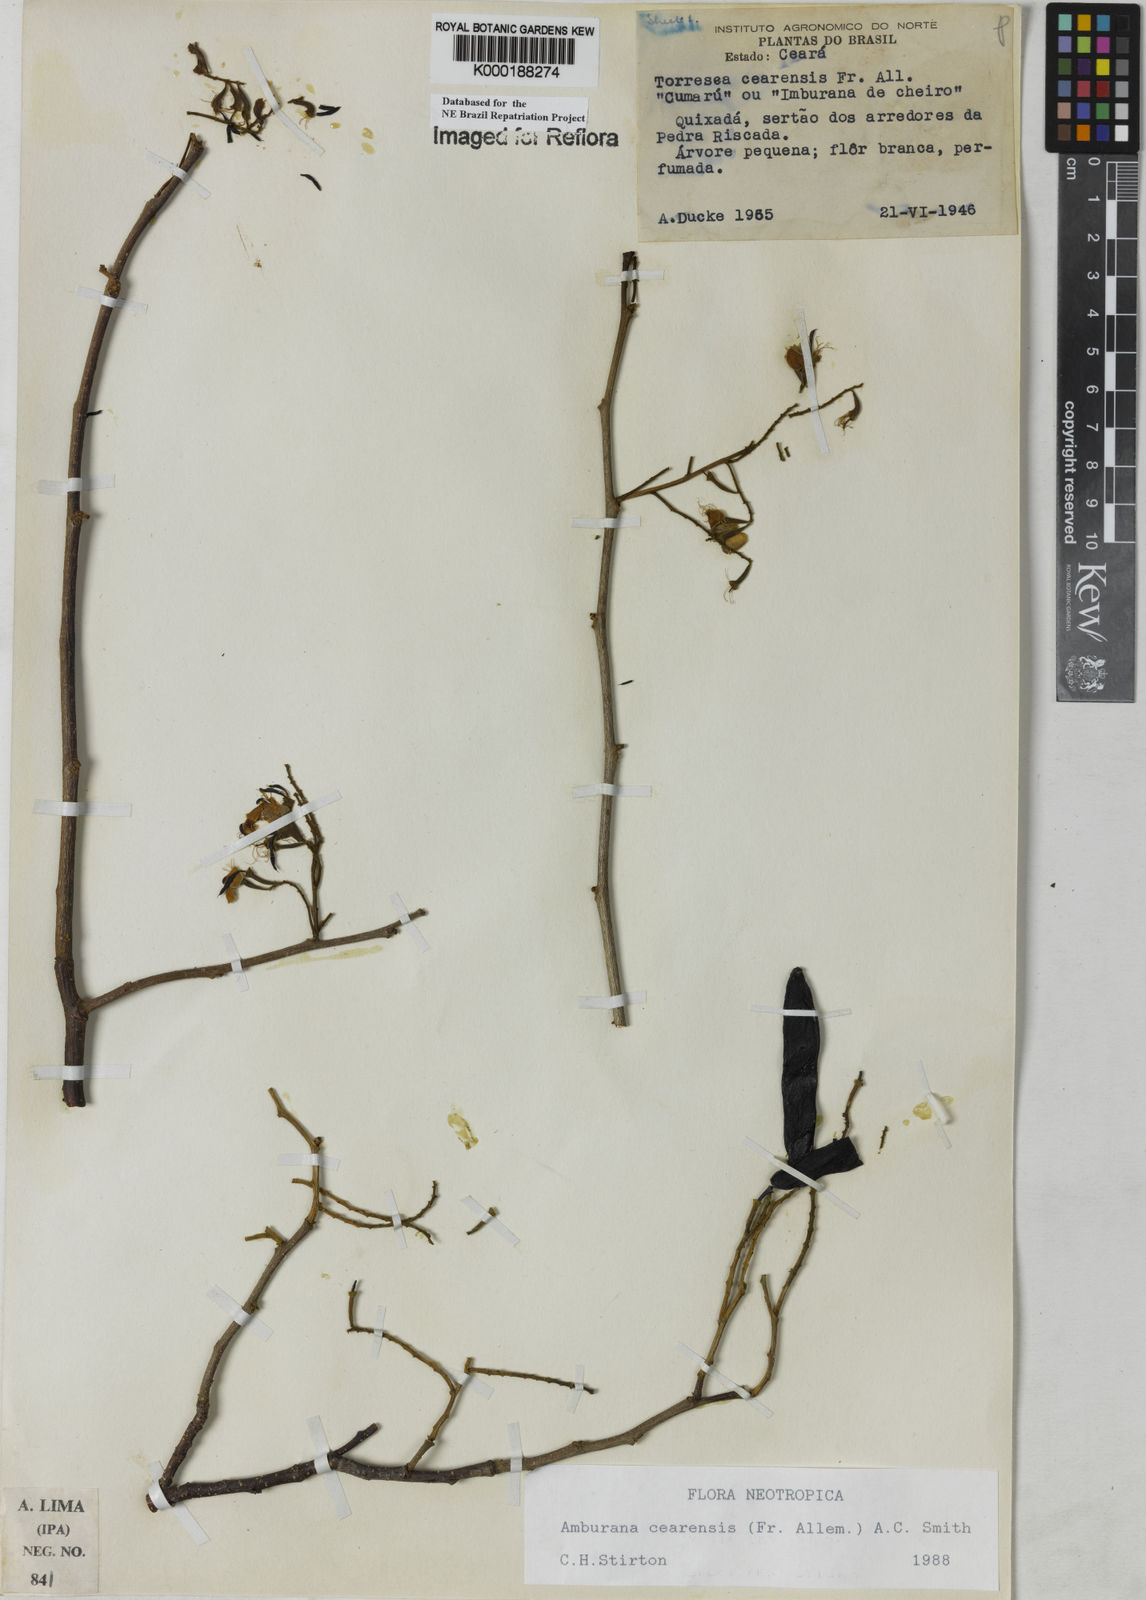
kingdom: Plantae
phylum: Tracheophyta
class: Magnoliopsida
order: Fabales
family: Fabaceae
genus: Amburana
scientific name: Amburana
